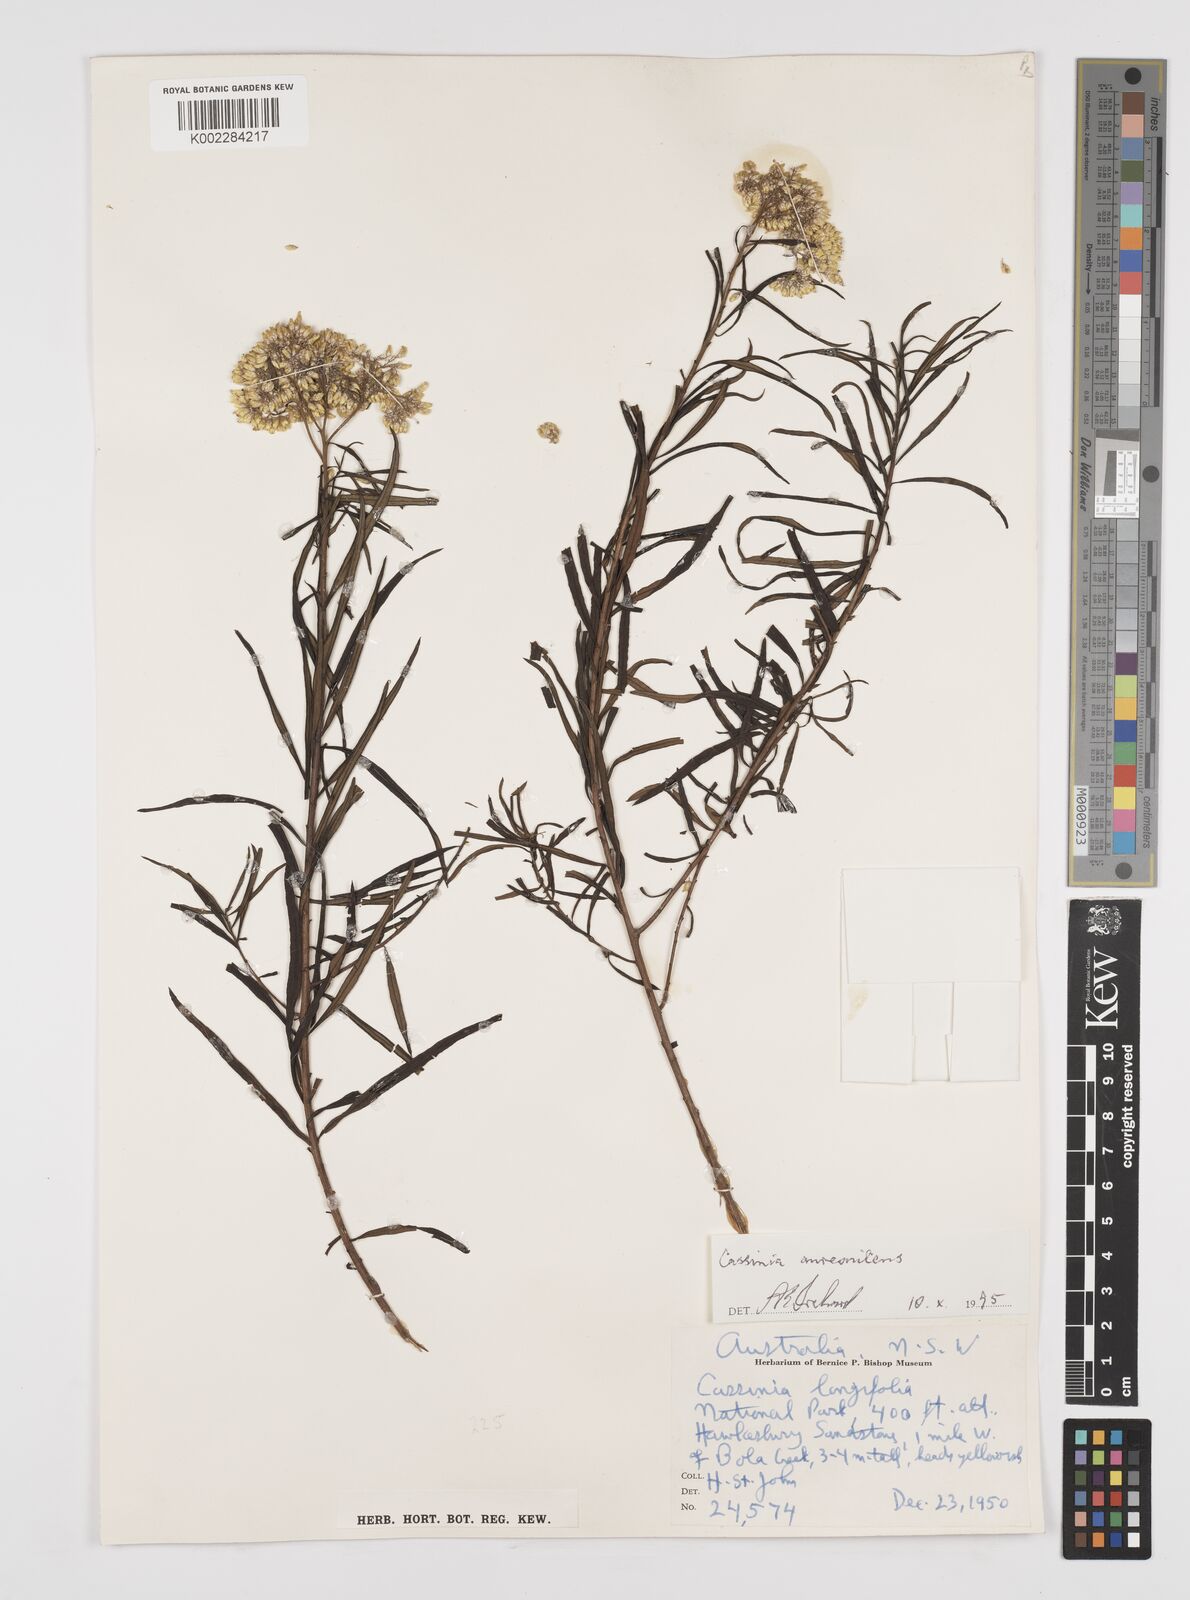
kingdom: Plantae
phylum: Tracheophyta
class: Magnoliopsida
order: Asterales
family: Asteraceae
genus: Cassinia
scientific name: Cassinia aureonitens
